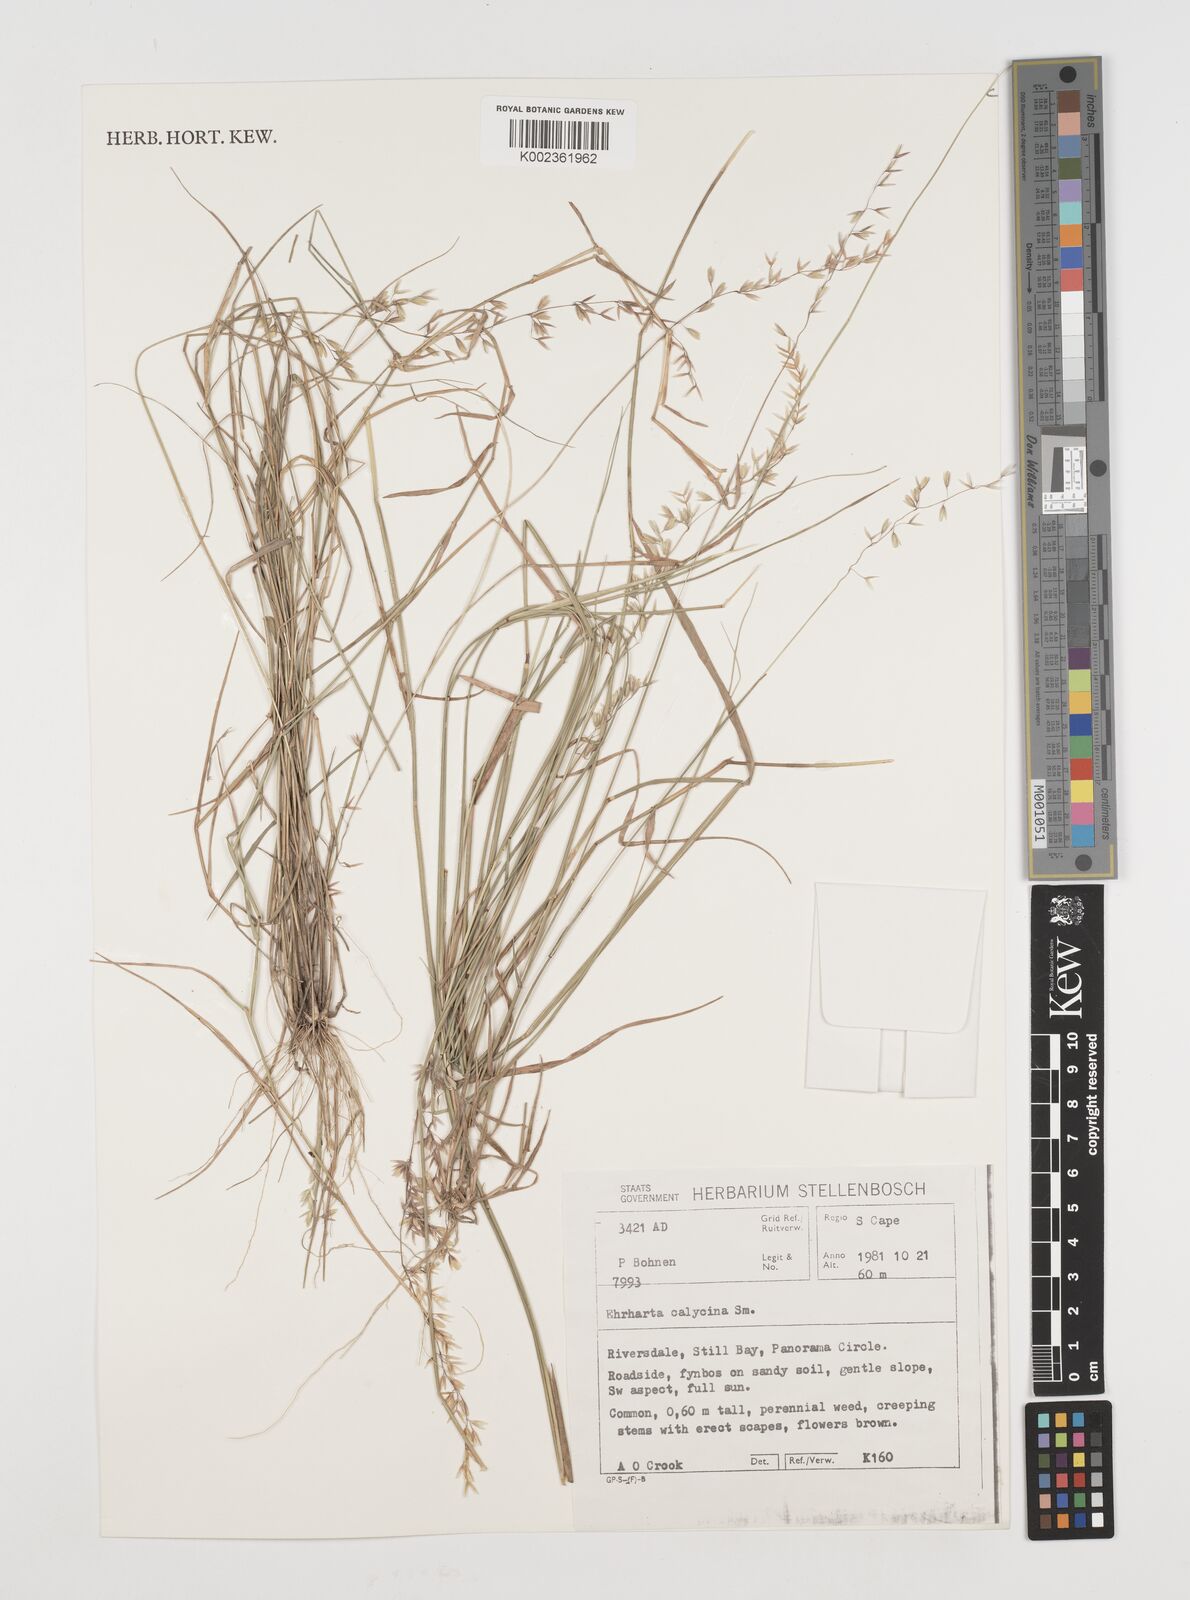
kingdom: Plantae
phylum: Tracheophyta
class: Liliopsida
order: Poales
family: Poaceae
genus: Ehrharta
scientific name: Ehrharta calycina
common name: Perennial veldtgrass
